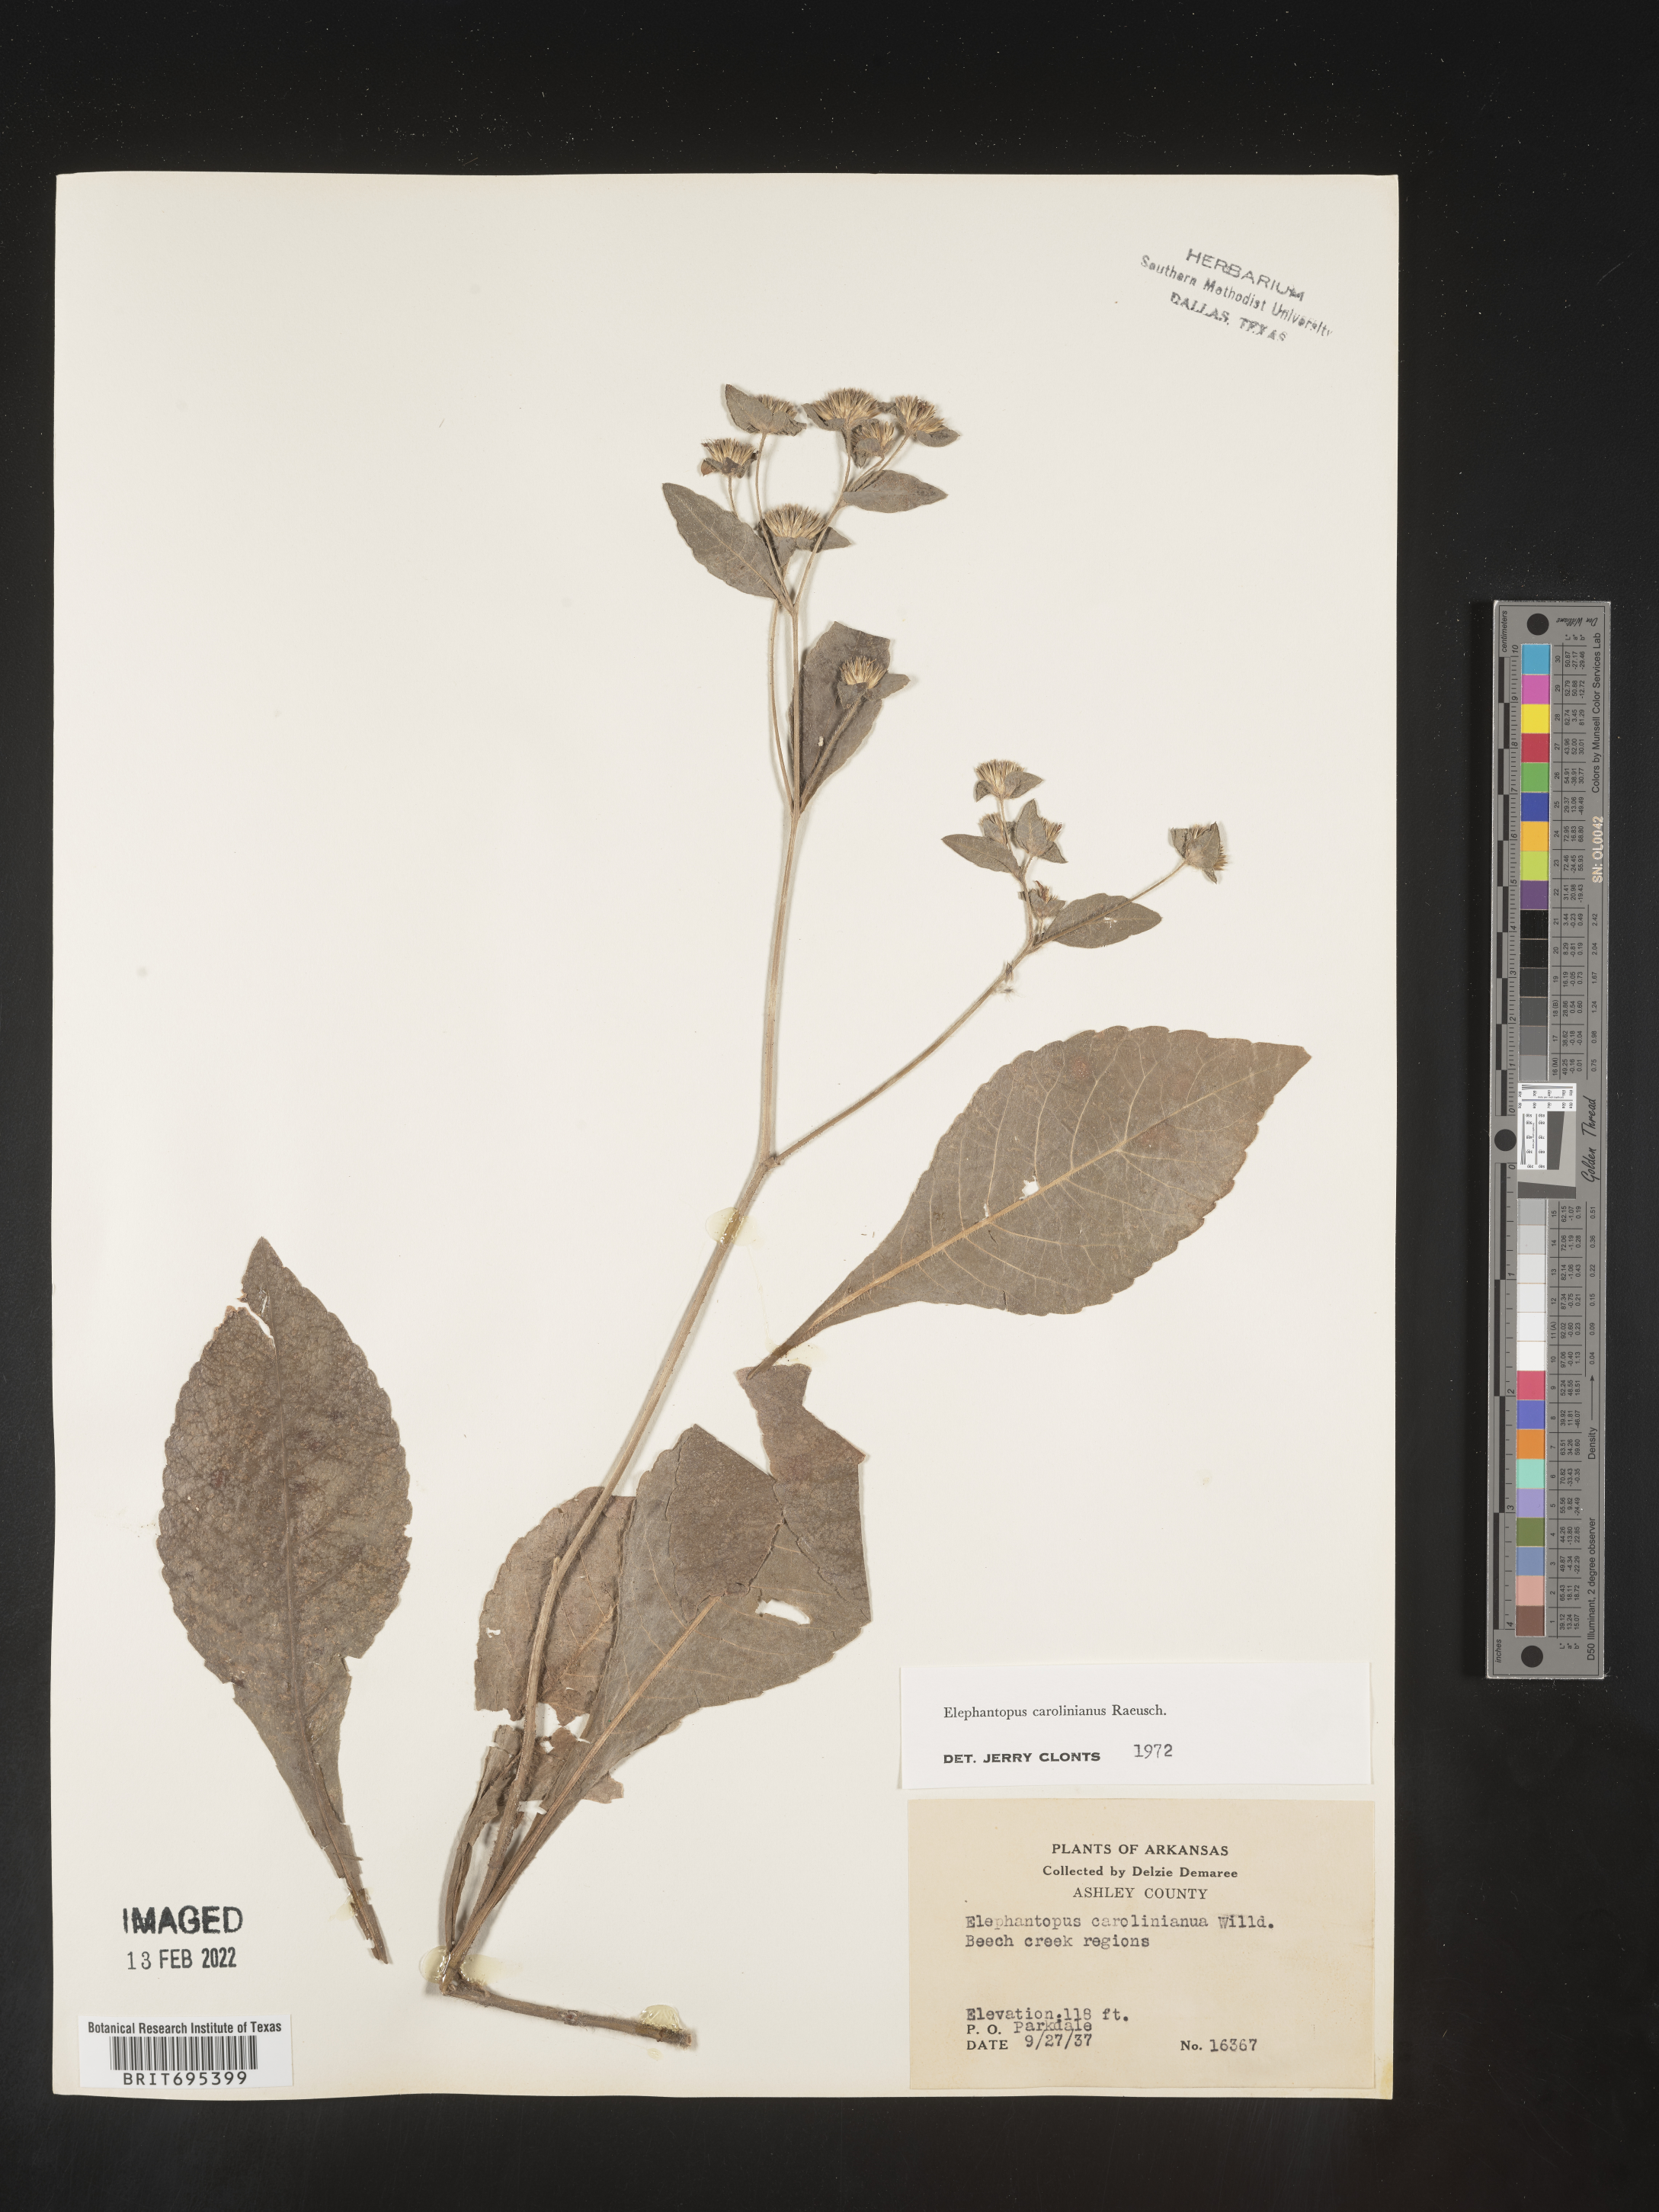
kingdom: Plantae
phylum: Tracheophyta
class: Magnoliopsida
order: Asterales
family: Asteraceae
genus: Elephantopus
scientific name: Elephantopus carolinianus
